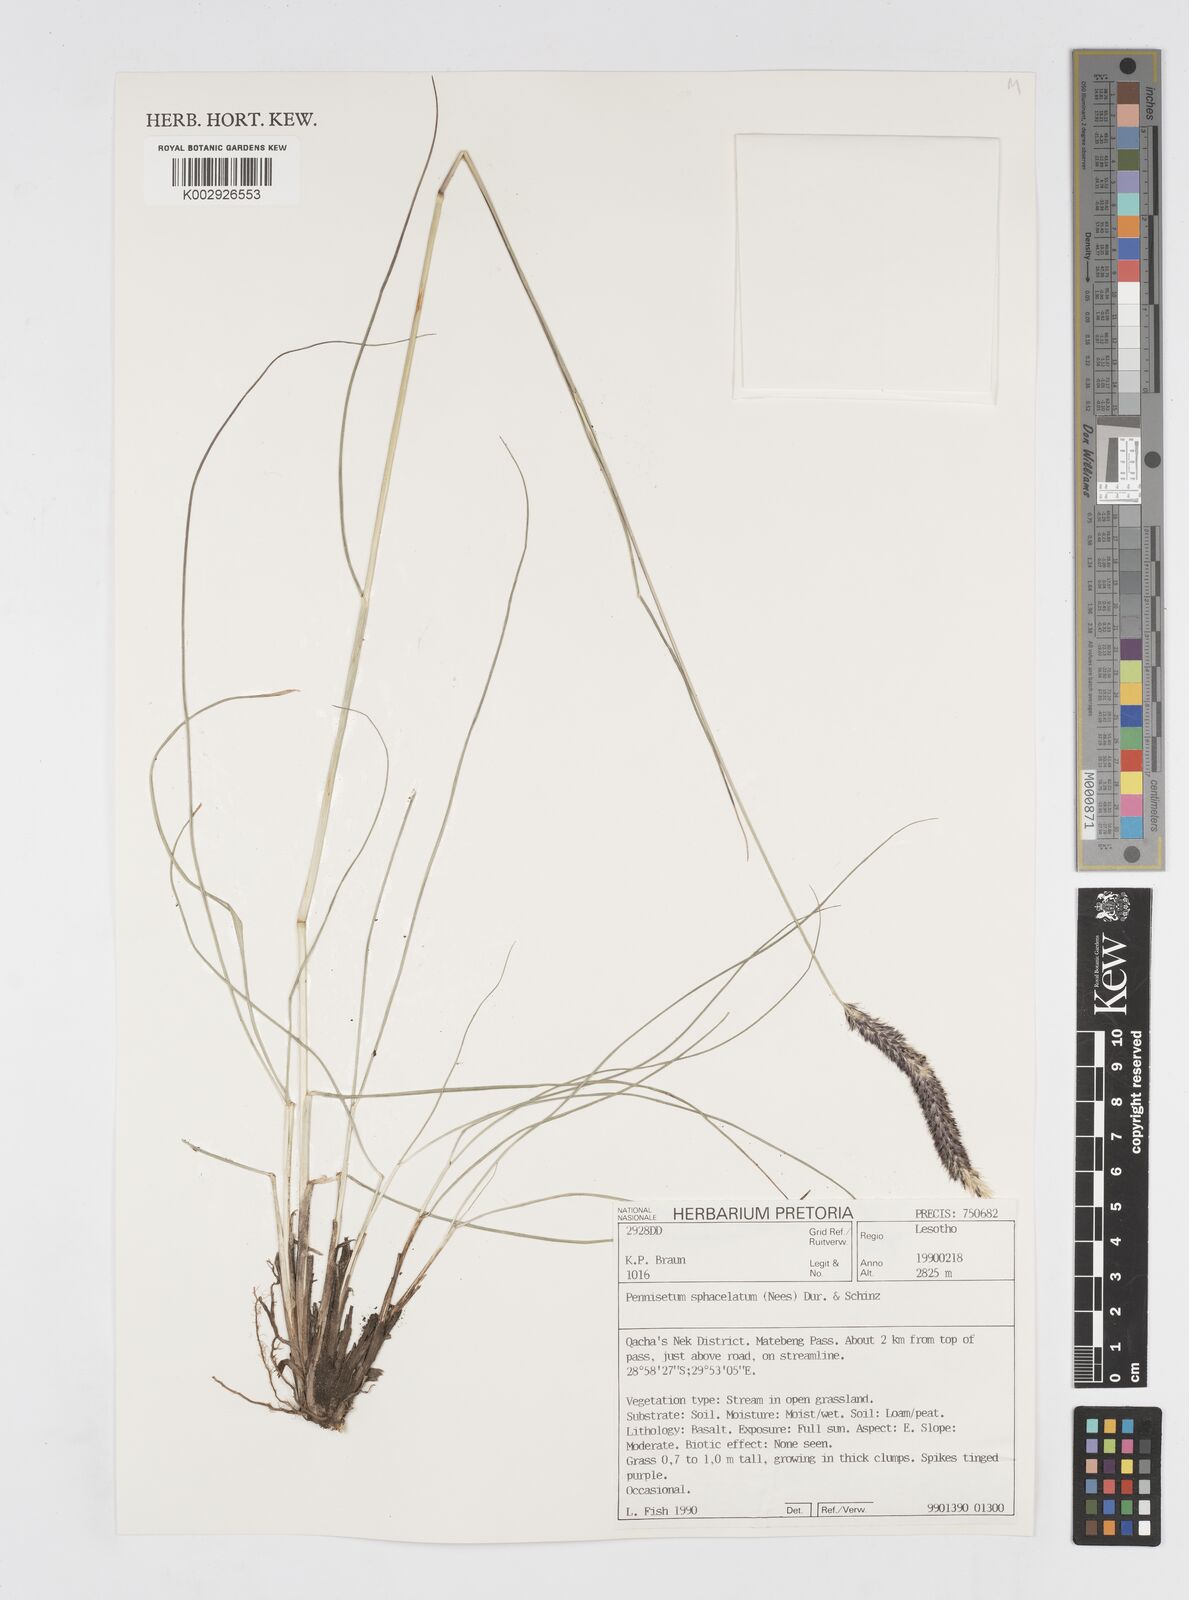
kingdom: Plantae
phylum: Tracheophyta
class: Liliopsida
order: Poales
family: Poaceae
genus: Cenchrus
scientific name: Cenchrus sphacelatus
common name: Bulgras
